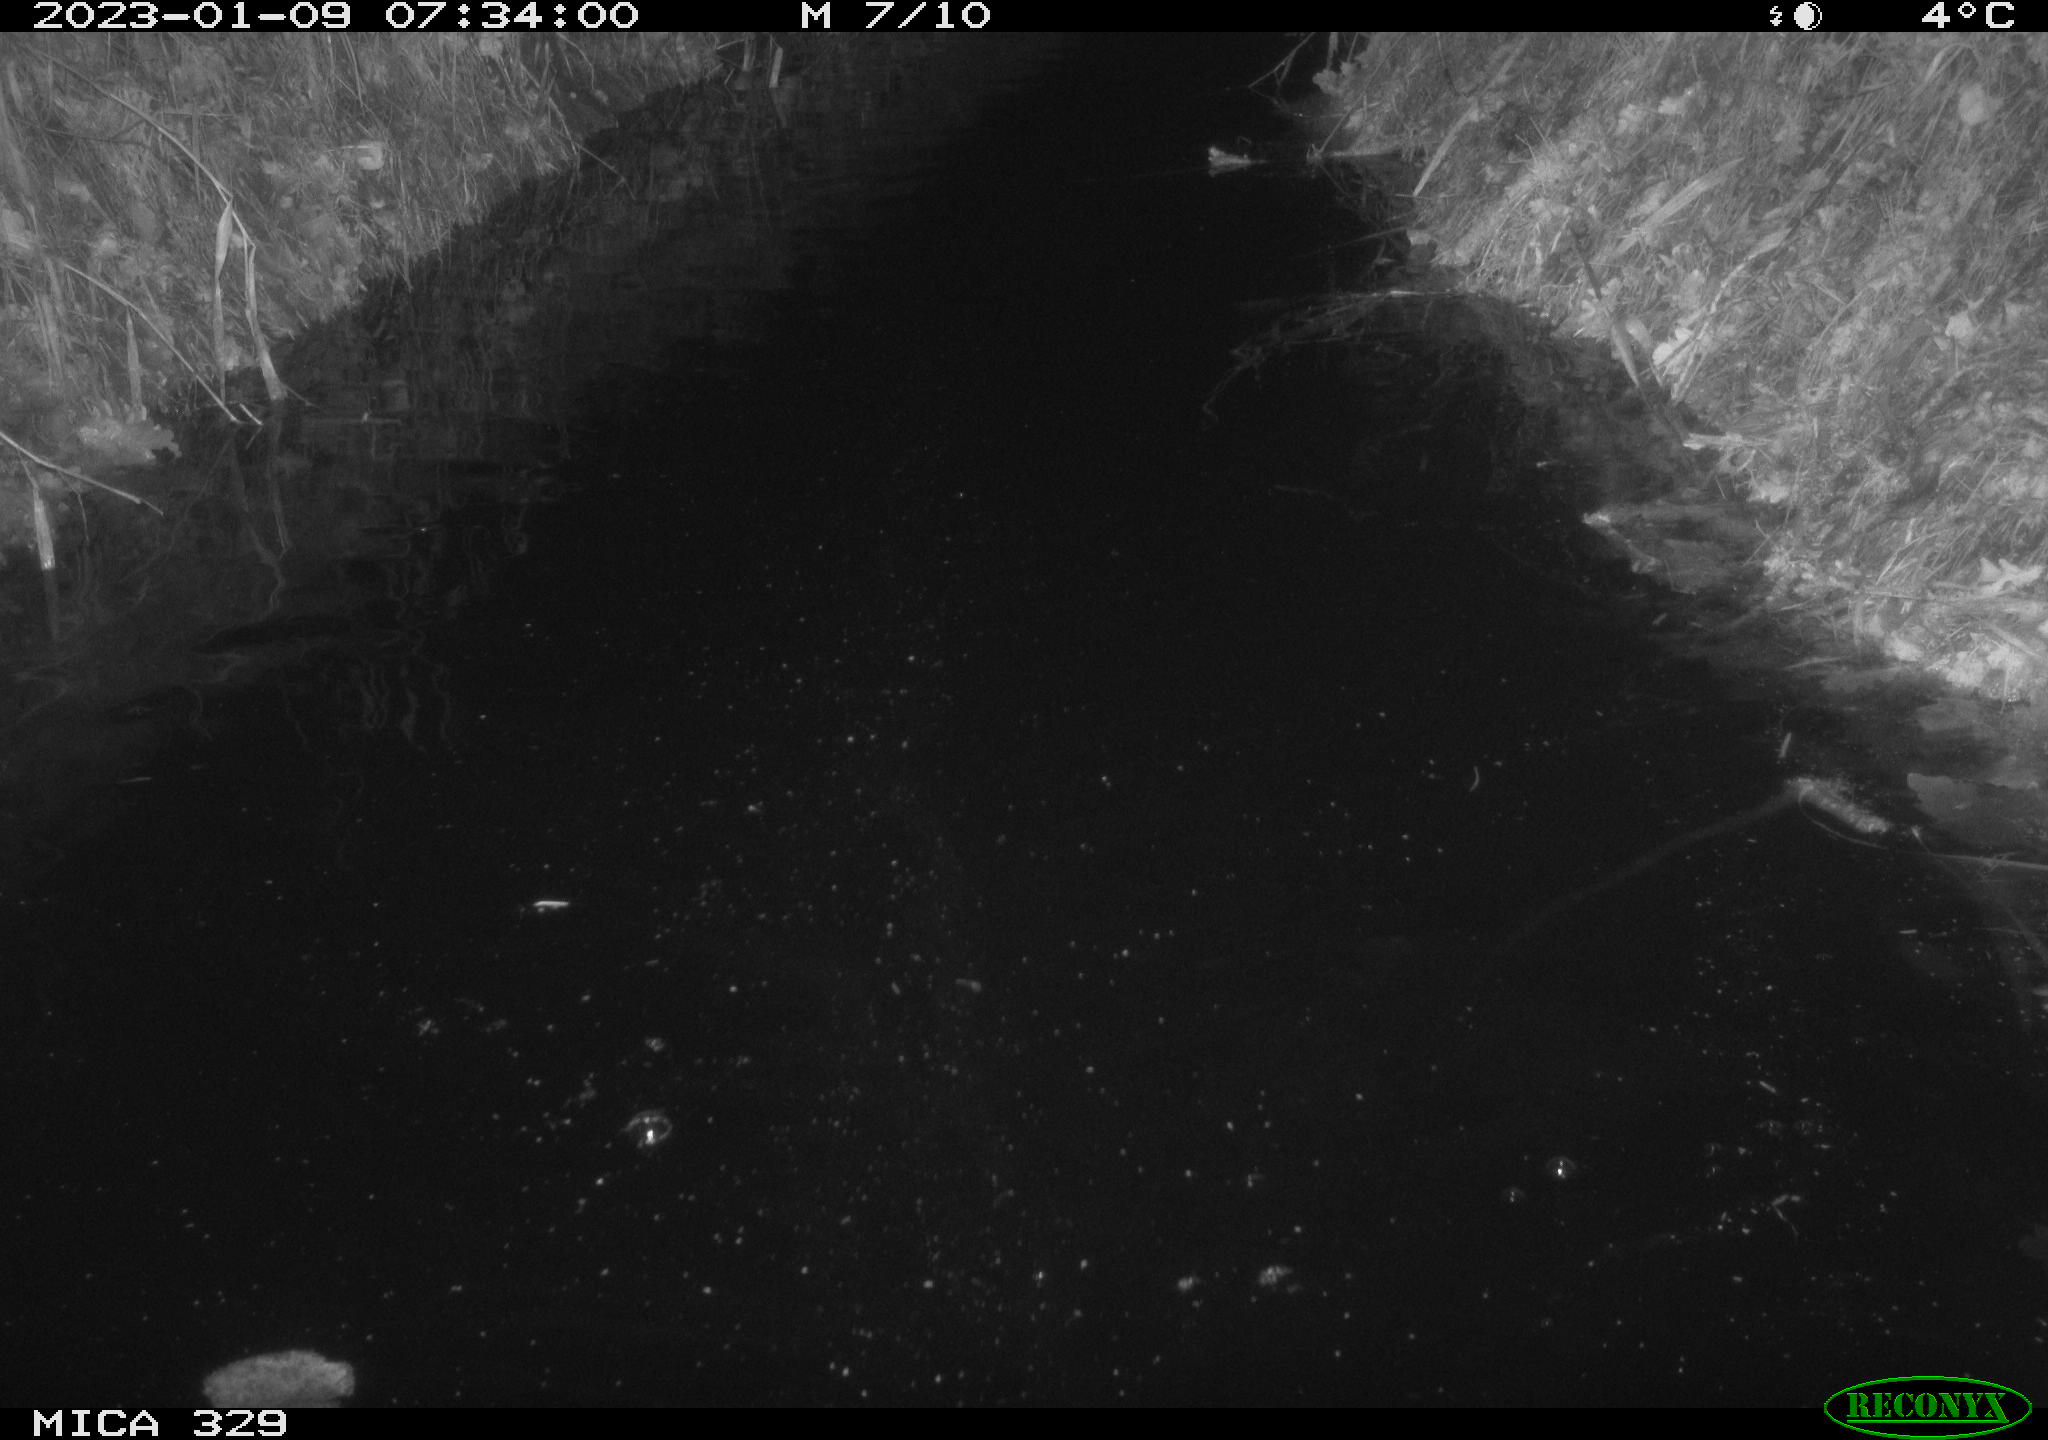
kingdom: Animalia
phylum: Chordata
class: Mammalia
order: Rodentia
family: Cricetidae
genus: Ondatra
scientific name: Ondatra zibethicus
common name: Muskrat
